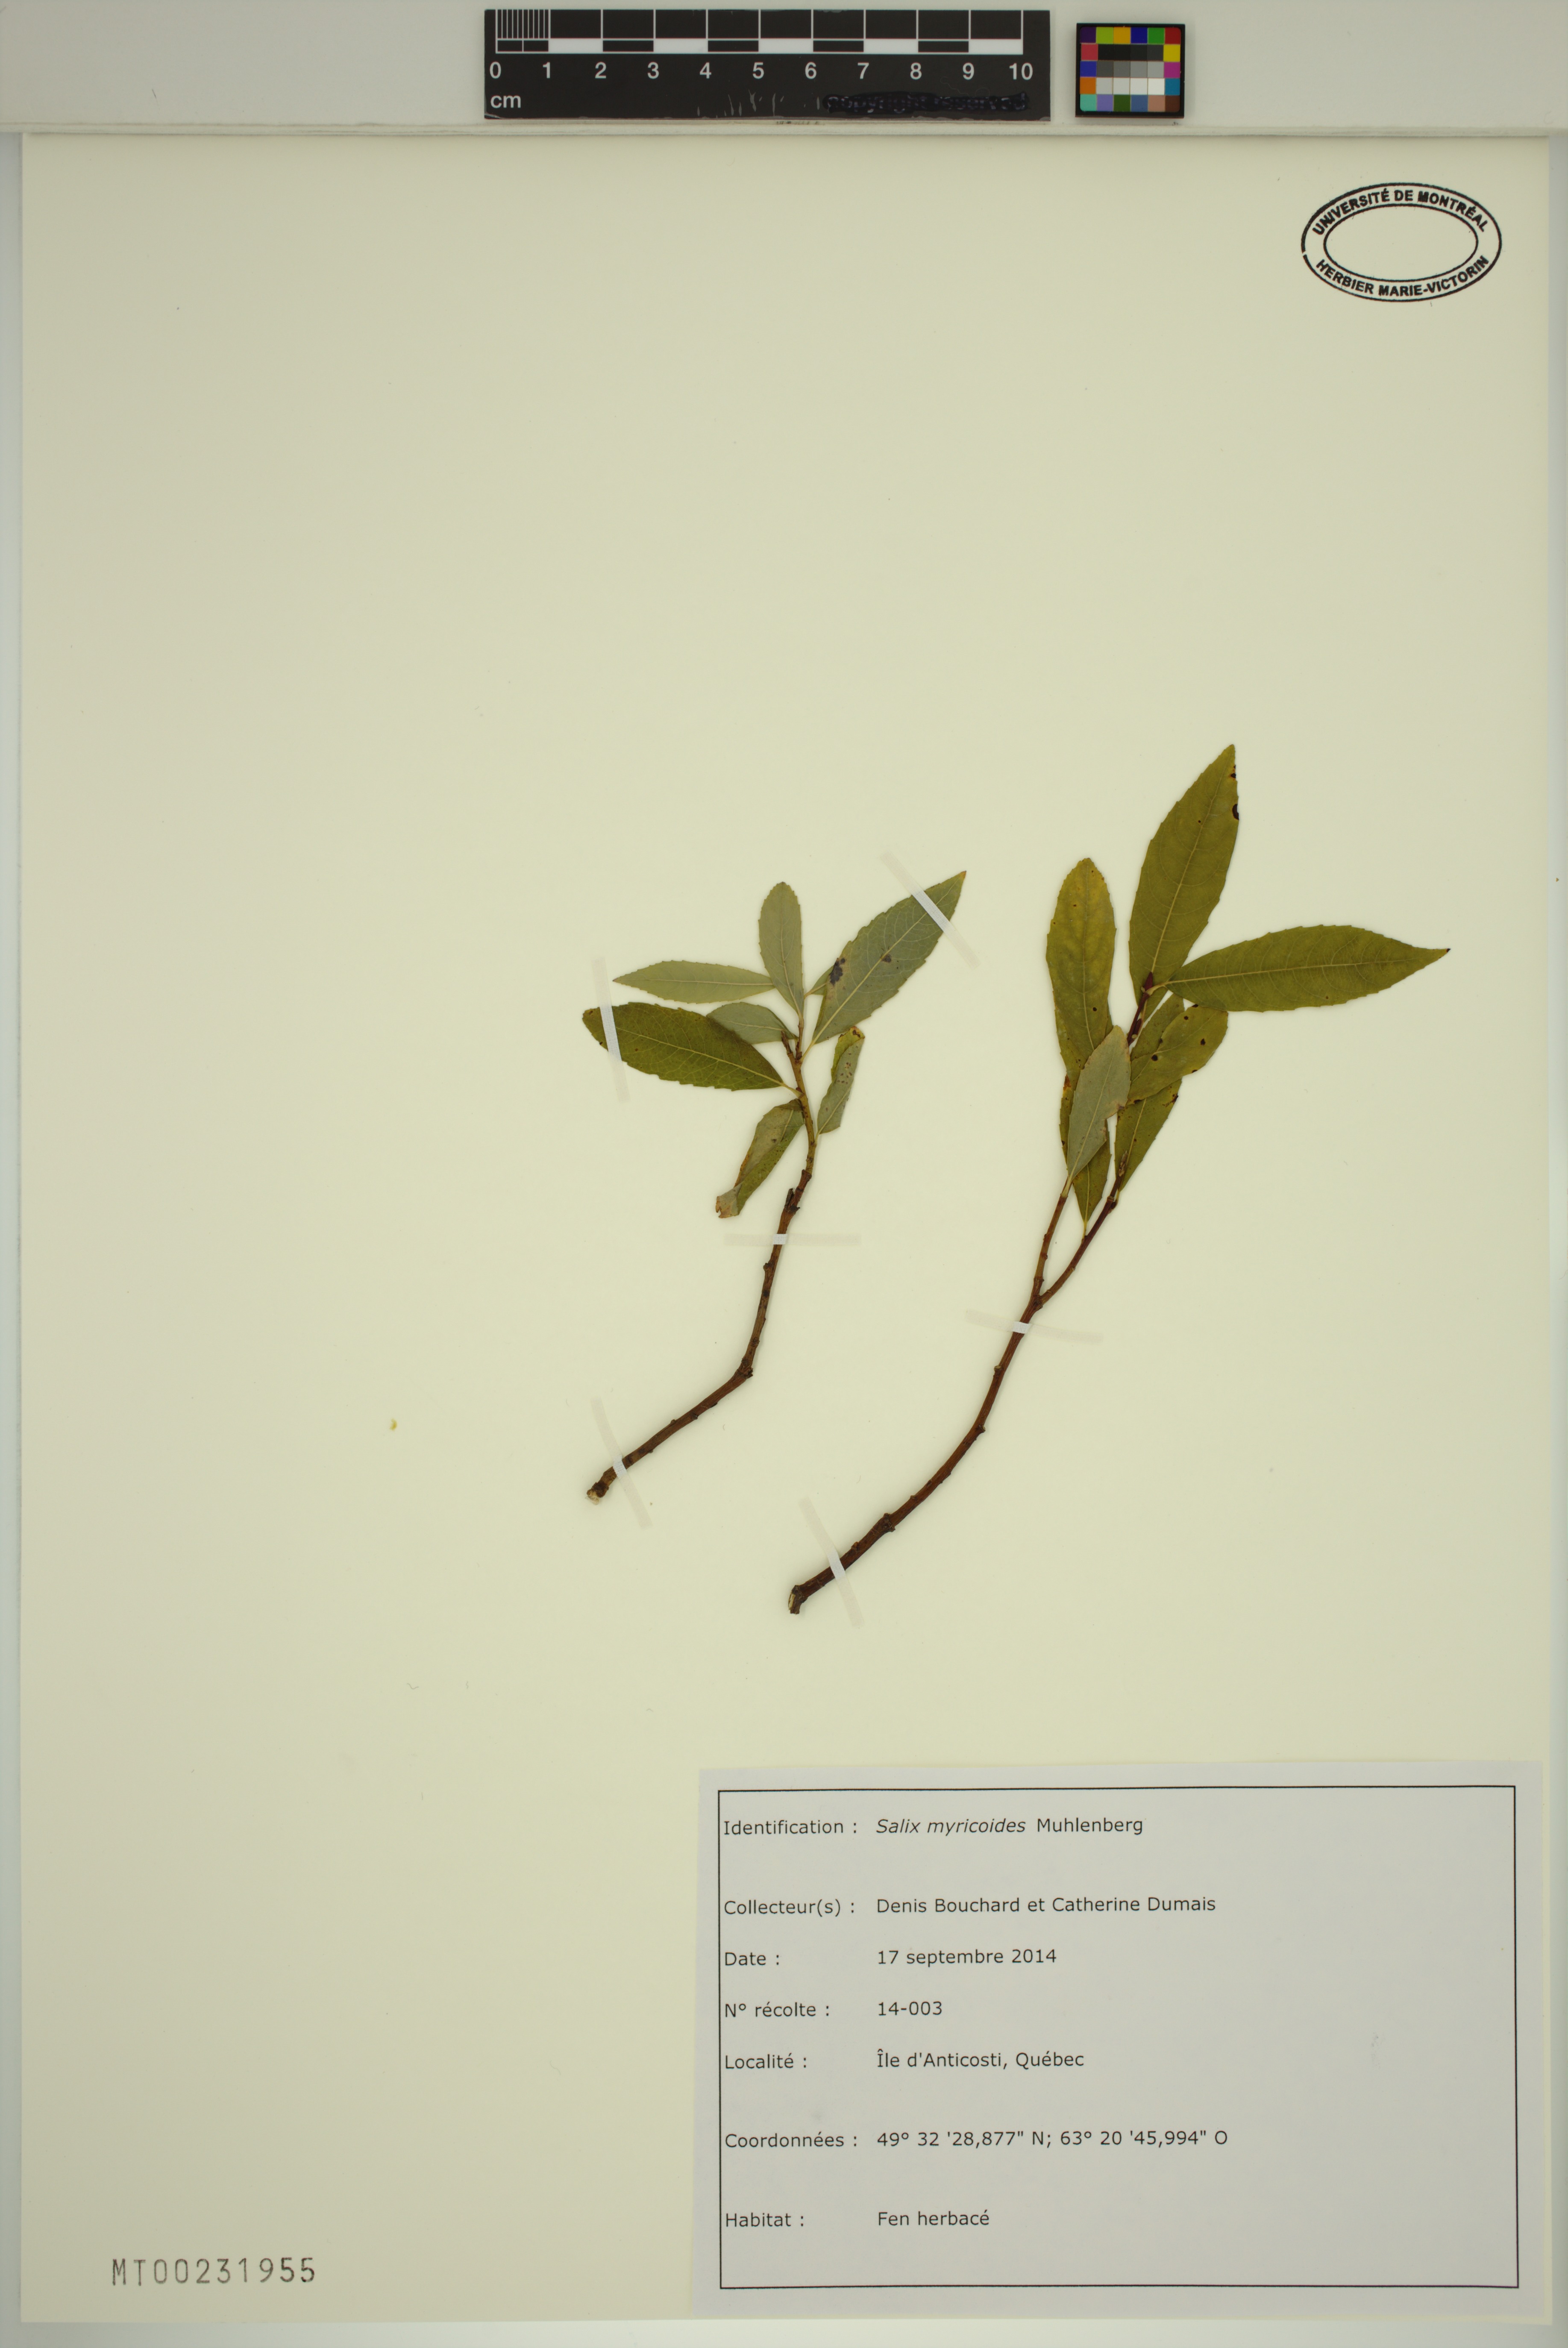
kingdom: Plantae
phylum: Tracheophyta
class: Magnoliopsida
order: Malpighiales
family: Salicaceae
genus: Salix
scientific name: Salix myricoides
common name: Bayberry willow
